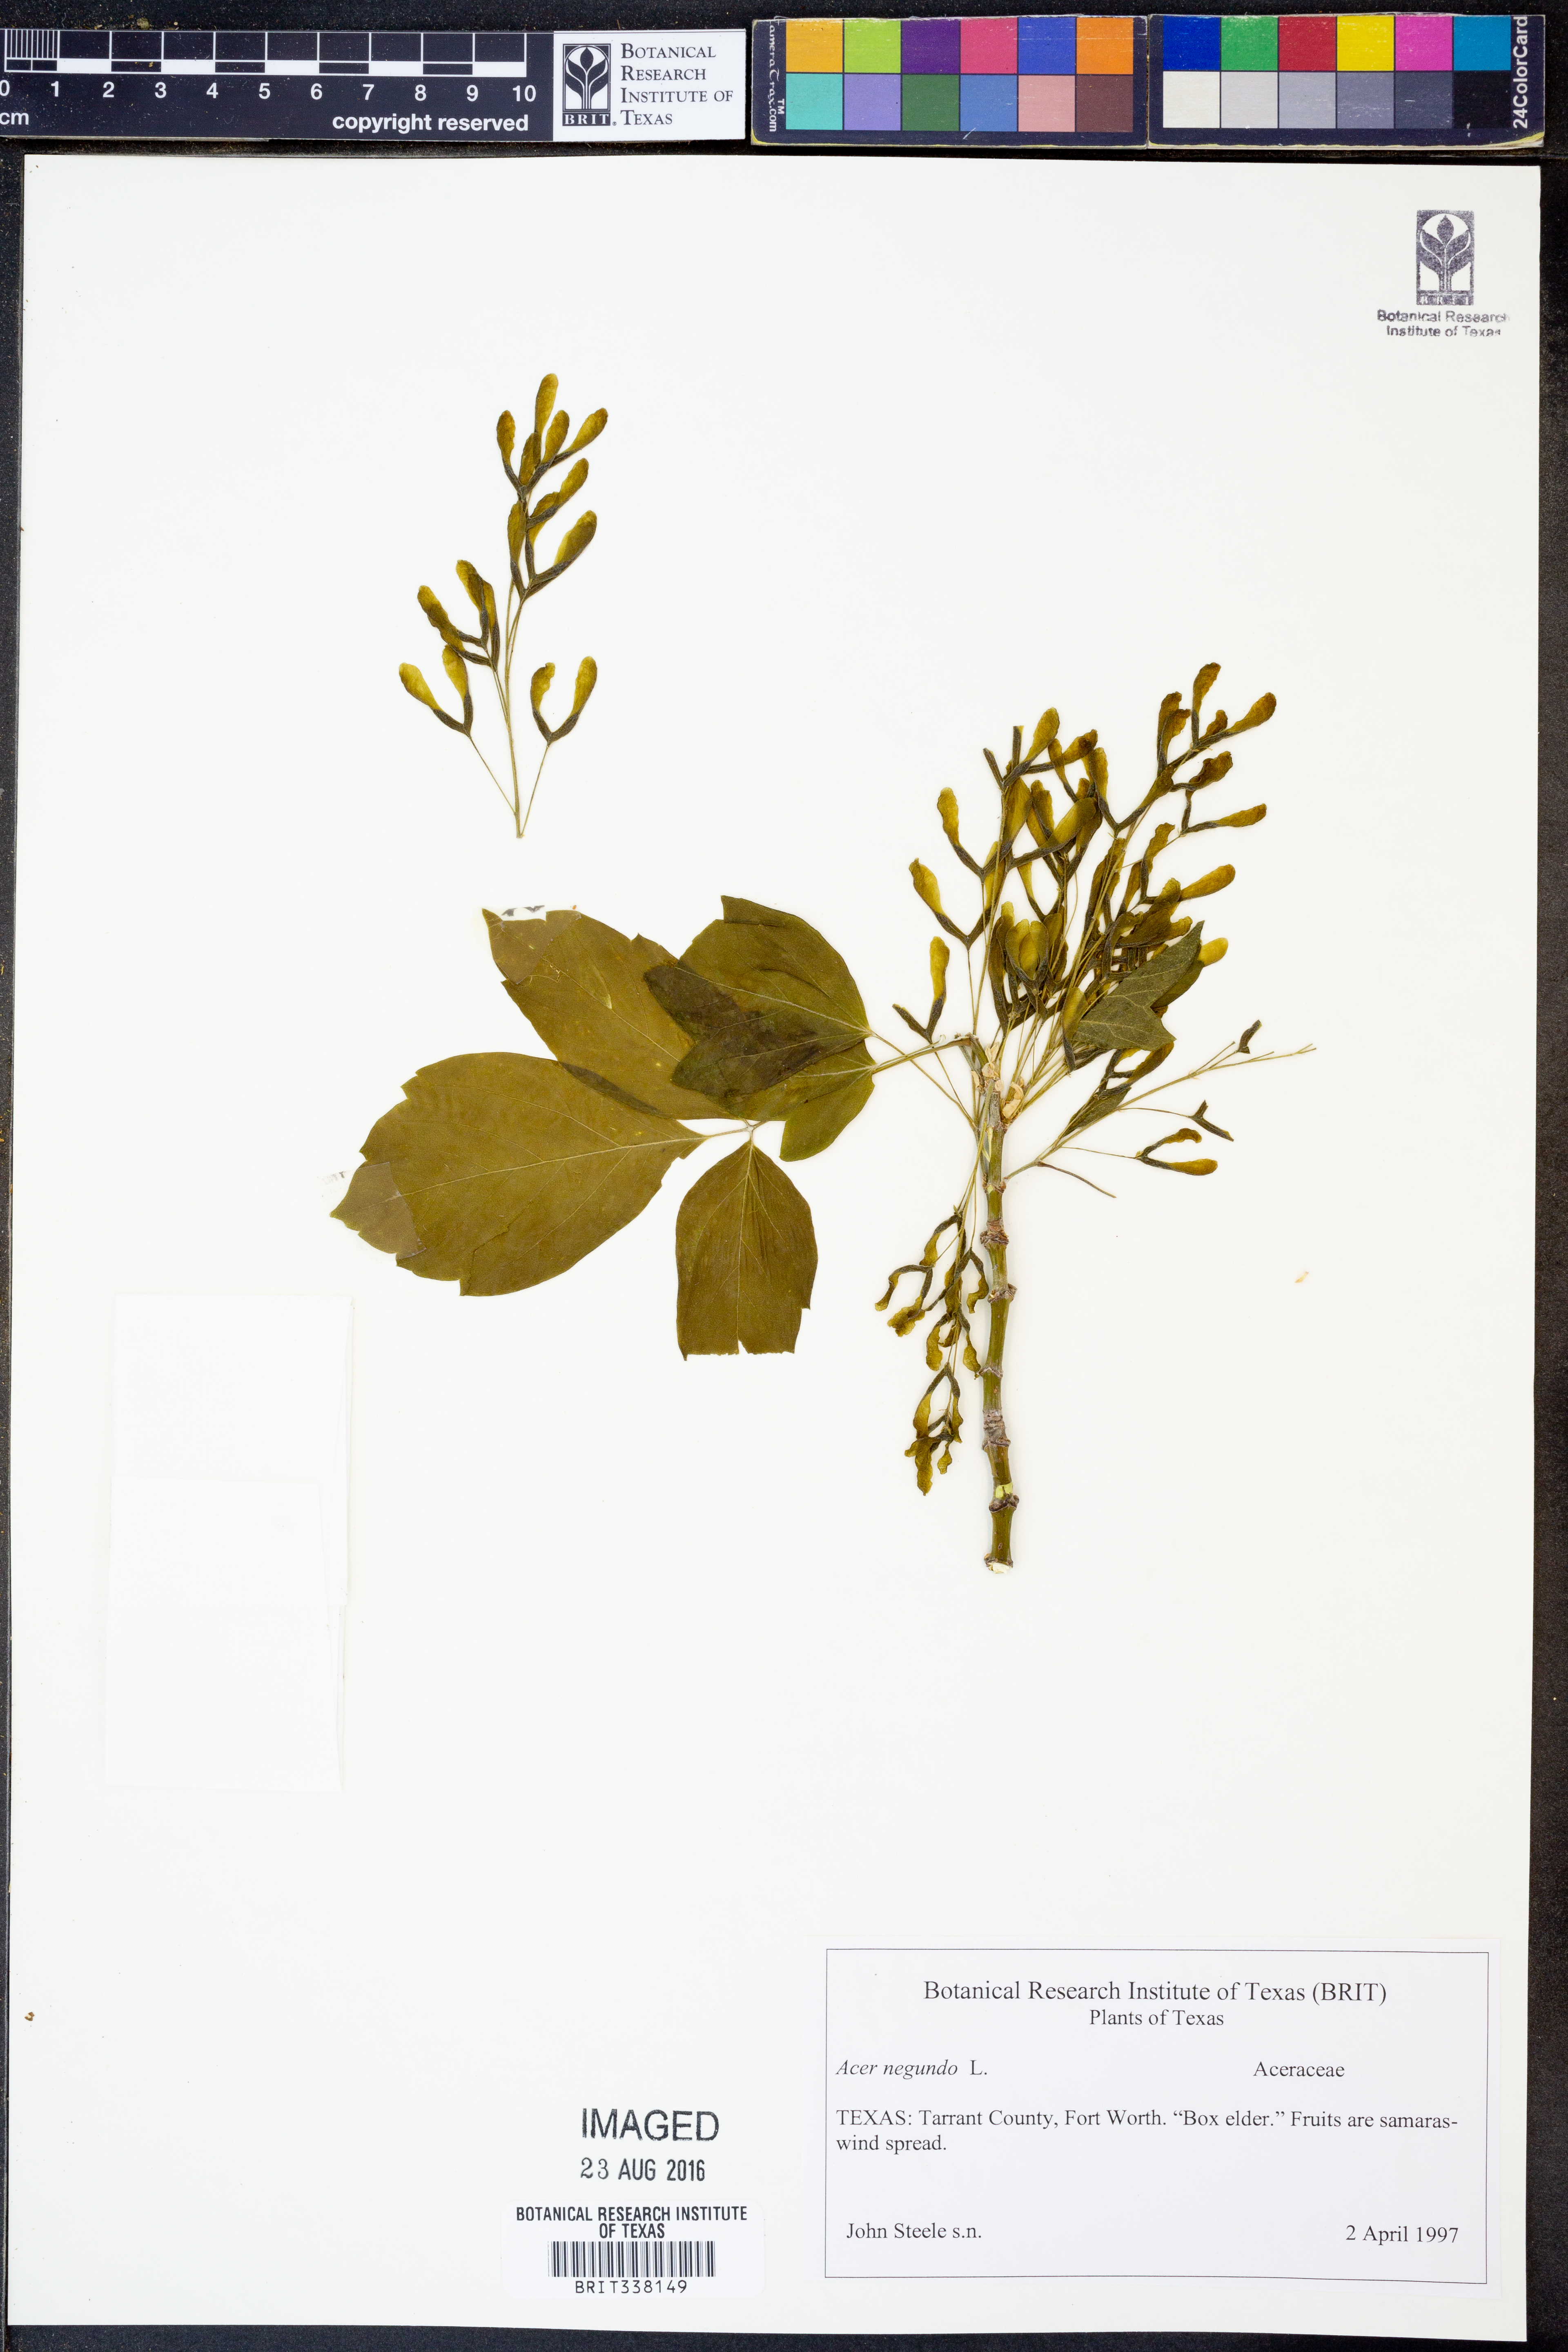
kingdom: Plantae
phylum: Tracheophyta
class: Magnoliopsida
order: Sapindales
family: Sapindaceae
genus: Acer
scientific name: Acer negundo
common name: Ashleaf maple
